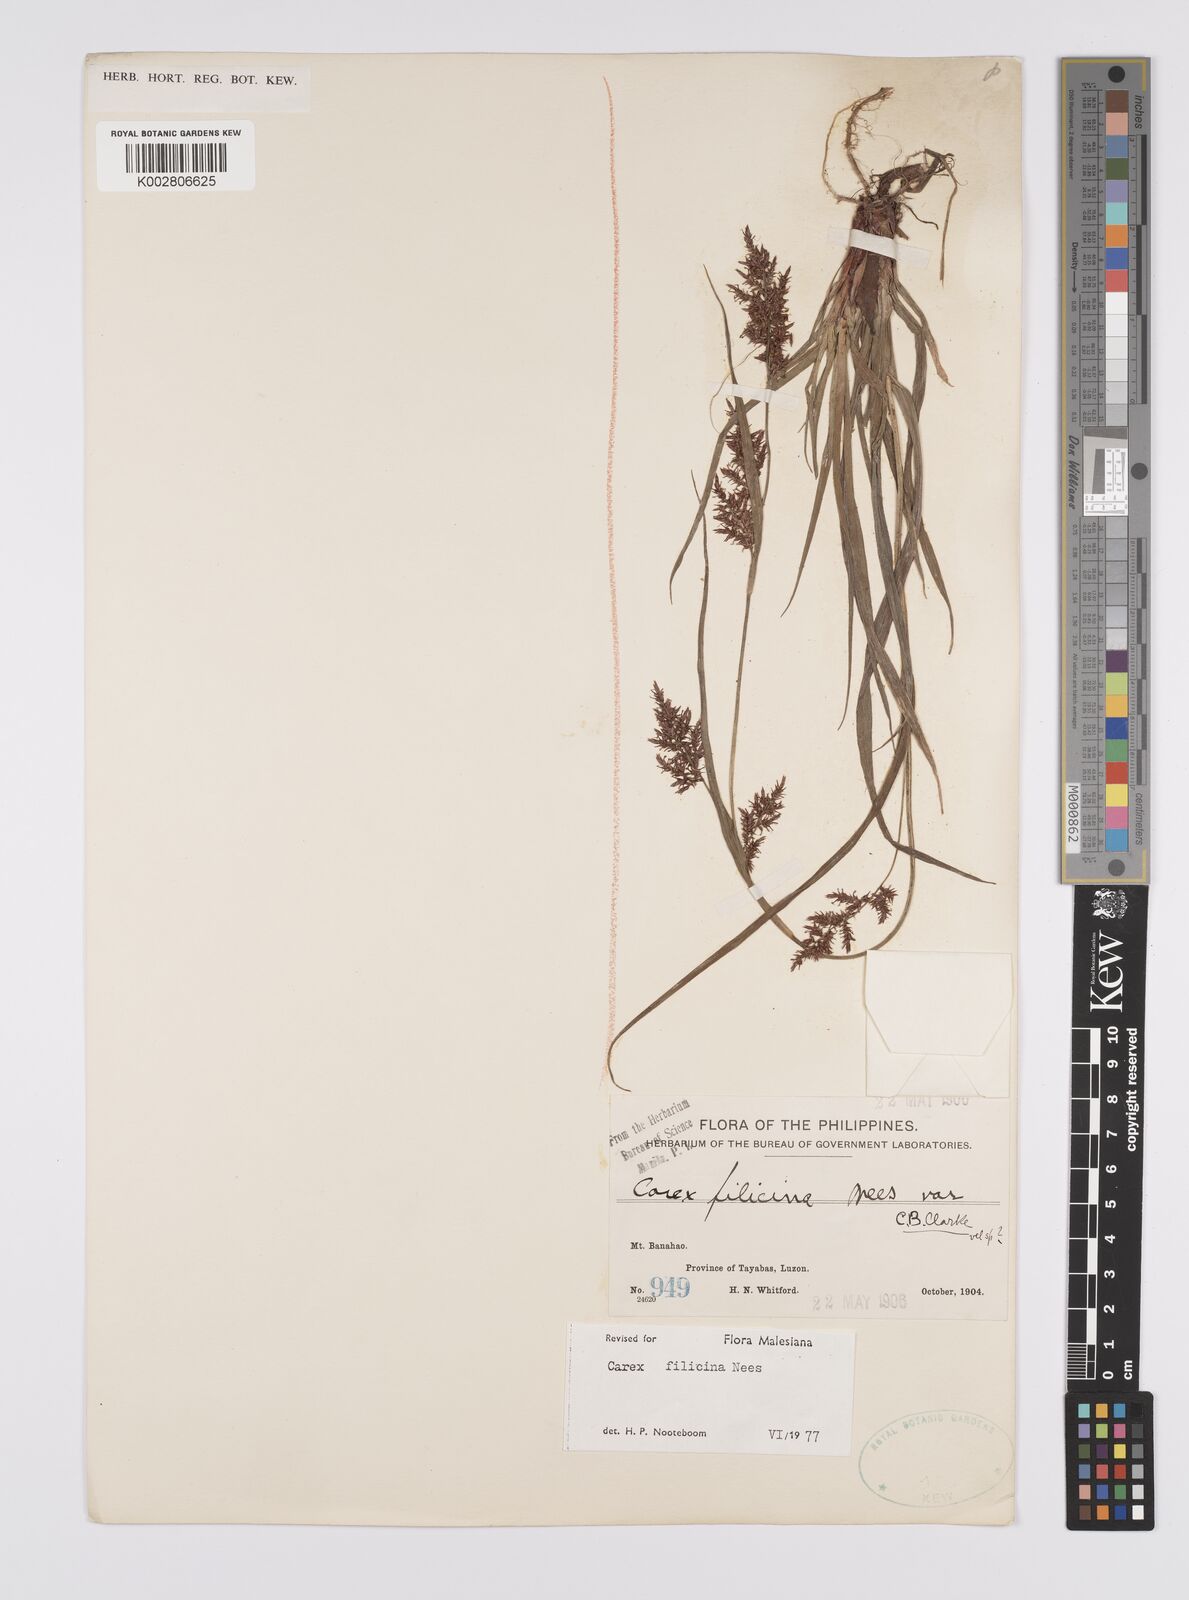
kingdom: Plantae
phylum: Tracheophyta
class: Liliopsida
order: Poales
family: Cyperaceae
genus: Carex
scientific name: Carex filicina
